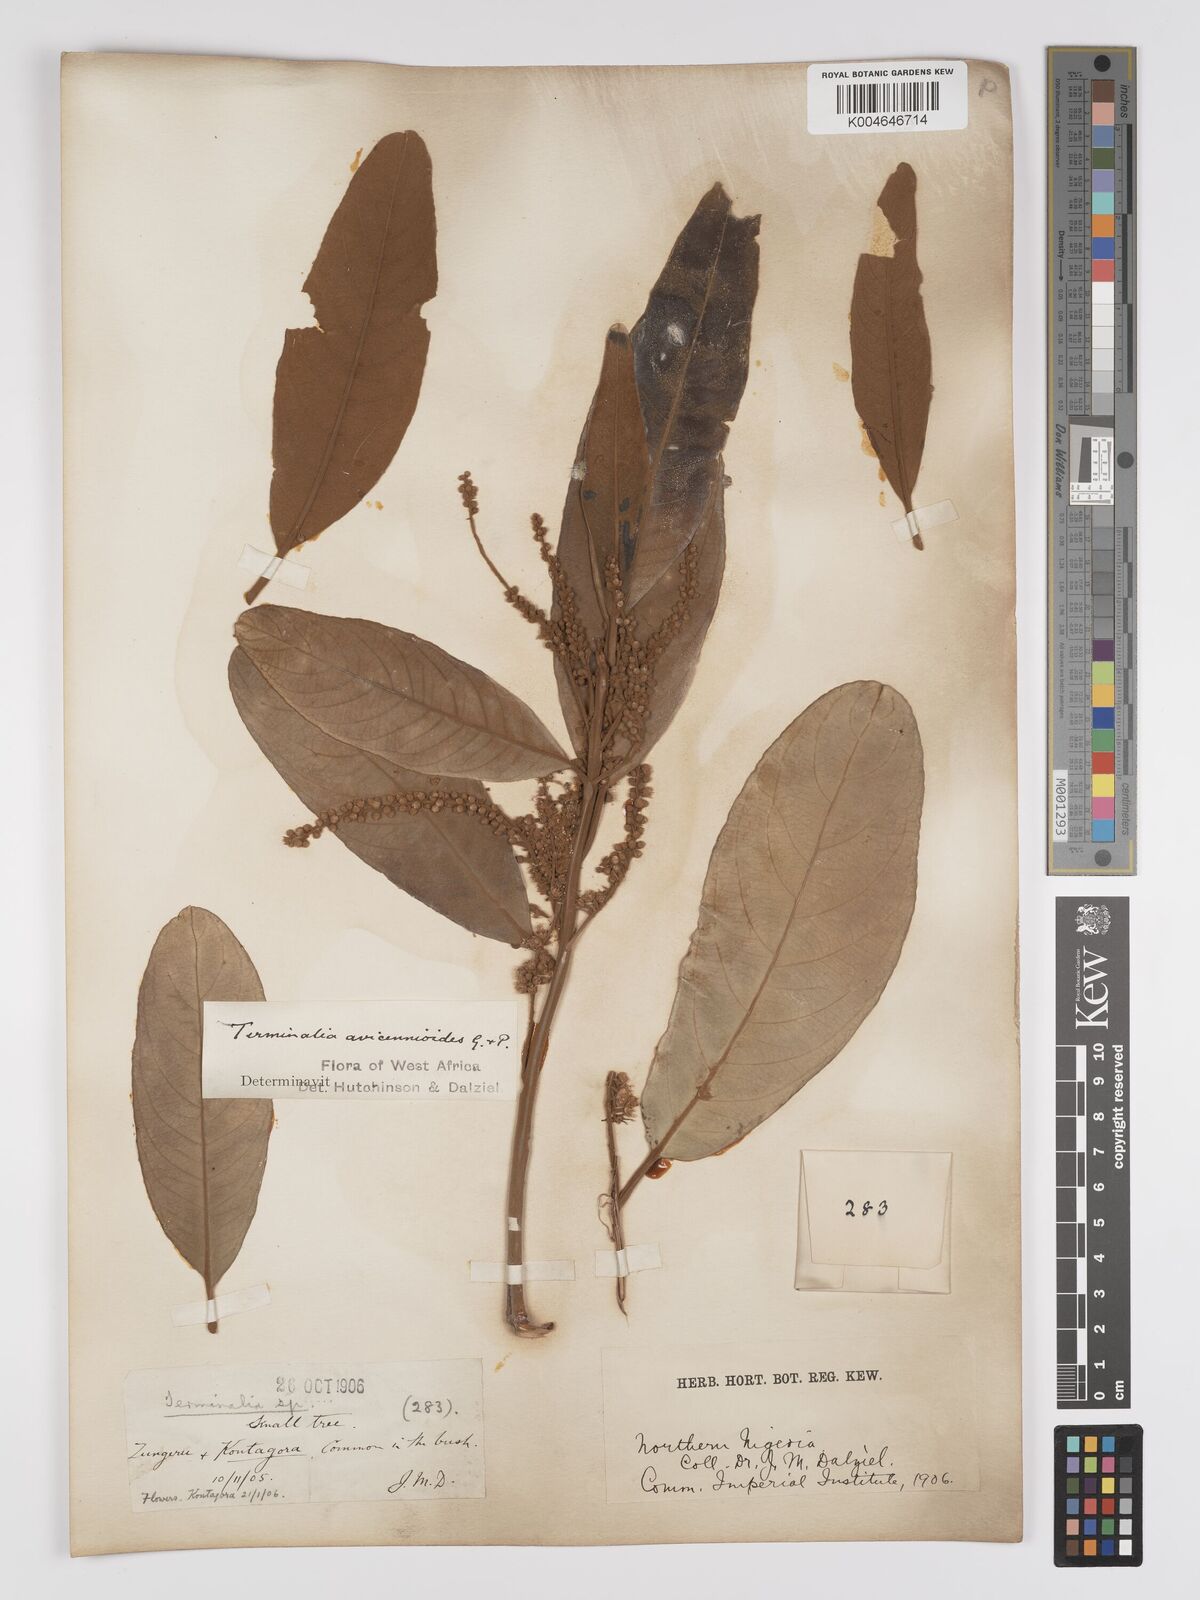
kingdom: Plantae
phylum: Tracheophyta
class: Magnoliopsida
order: Myrtales
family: Combretaceae
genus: Terminalia
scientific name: Terminalia avicennioides
